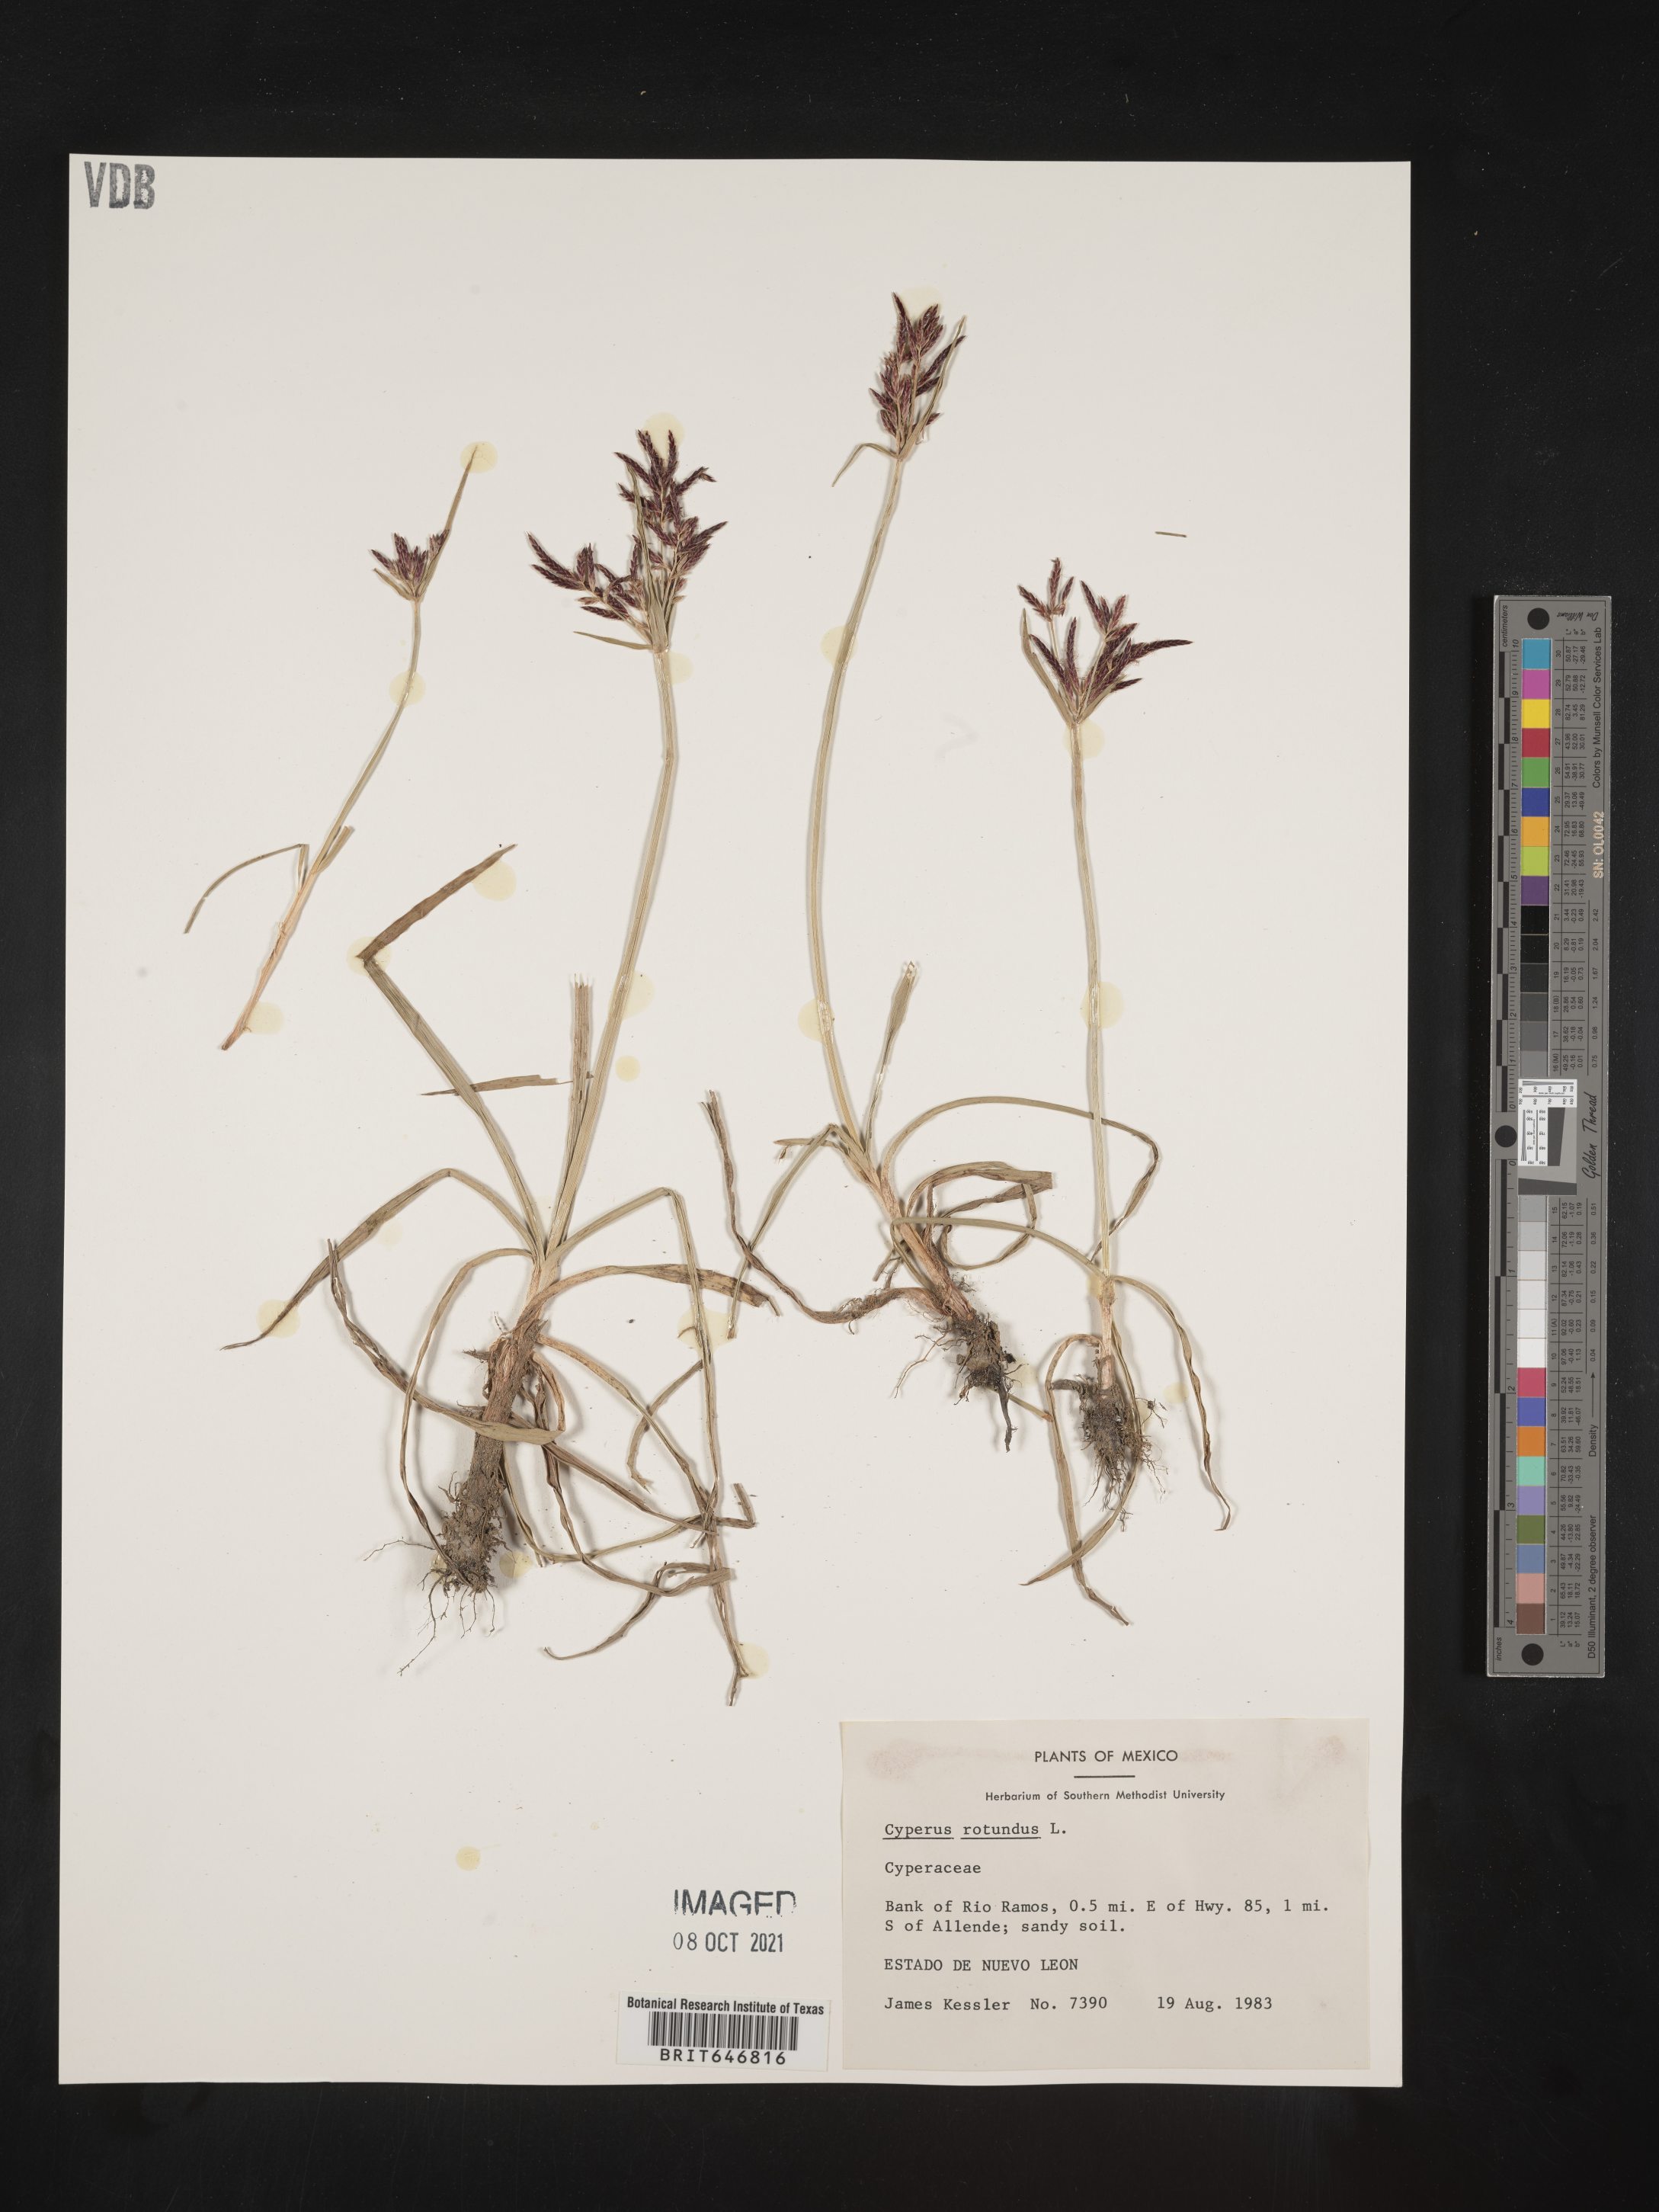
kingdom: Plantae
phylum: Tracheophyta
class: Liliopsida
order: Poales
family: Cyperaceae
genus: Cyperus
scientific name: Cyperus
